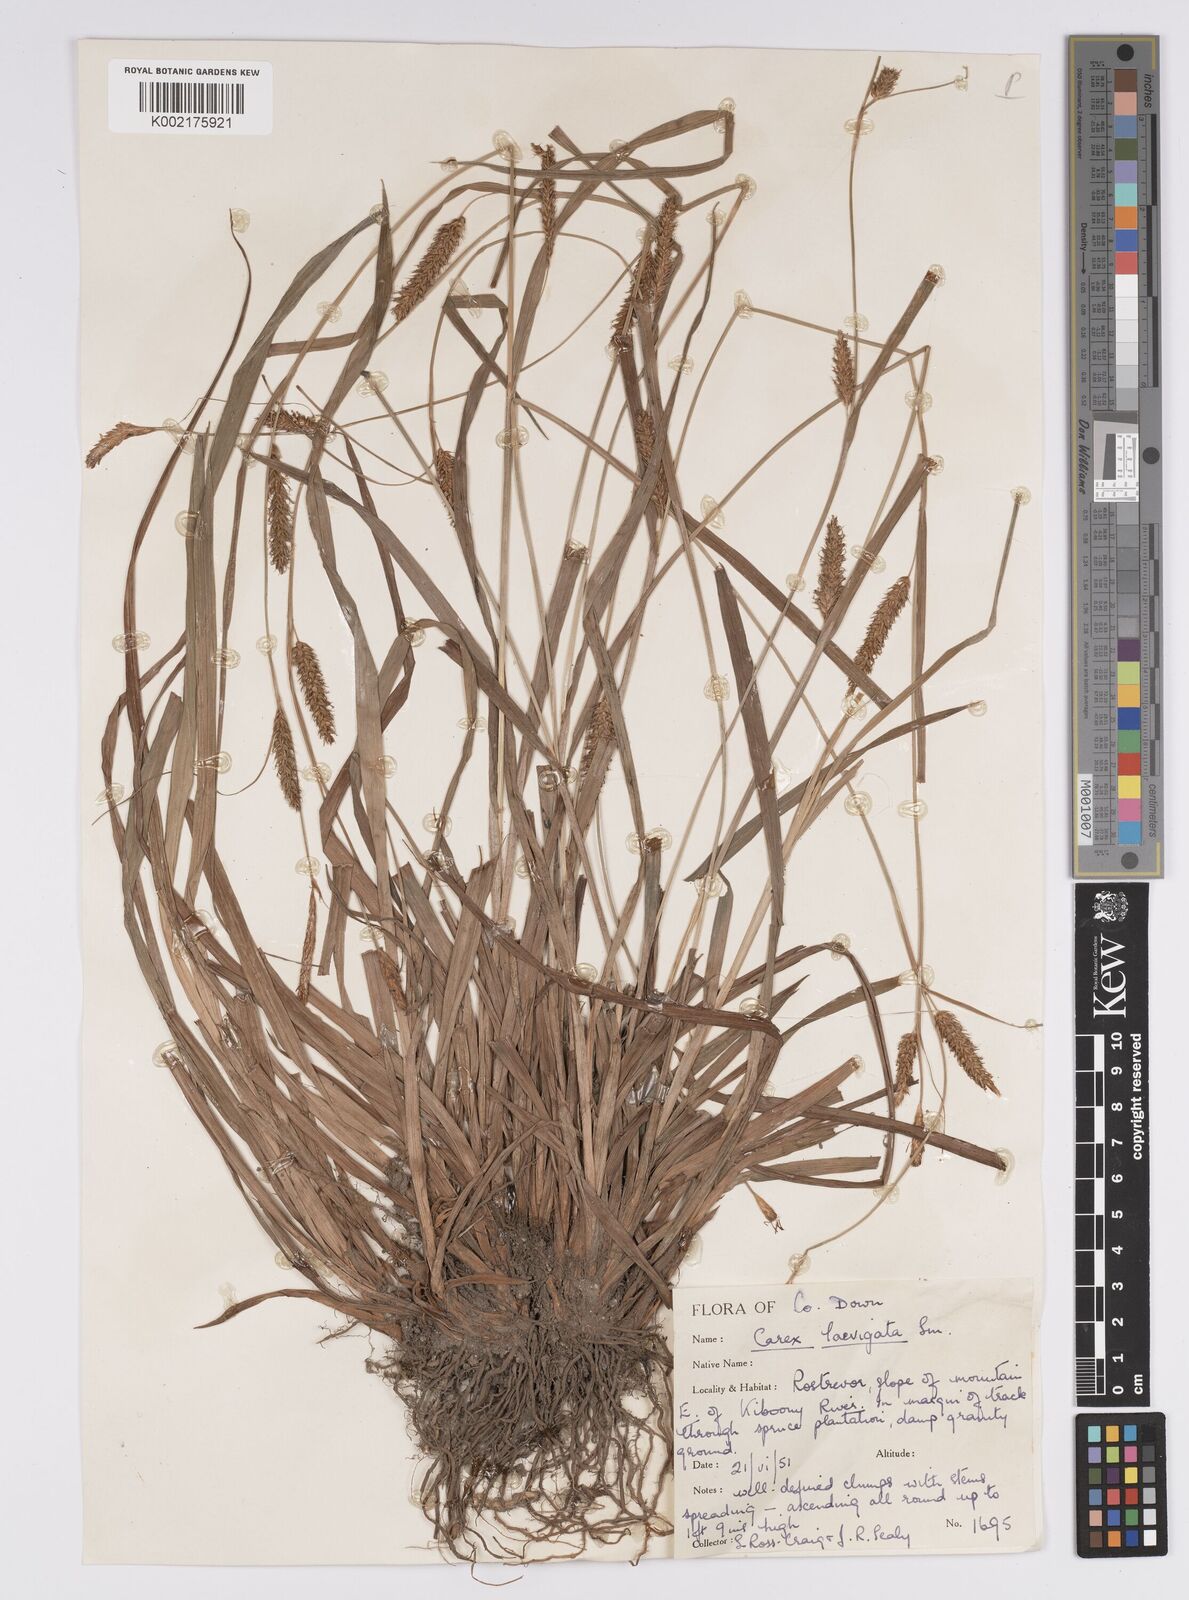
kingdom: Plantae
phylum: Tracheophyta
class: Liliopsida
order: Poales
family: Cyperaceae
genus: Carex
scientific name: Carex laevigata
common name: Smooth-stalked sedge
